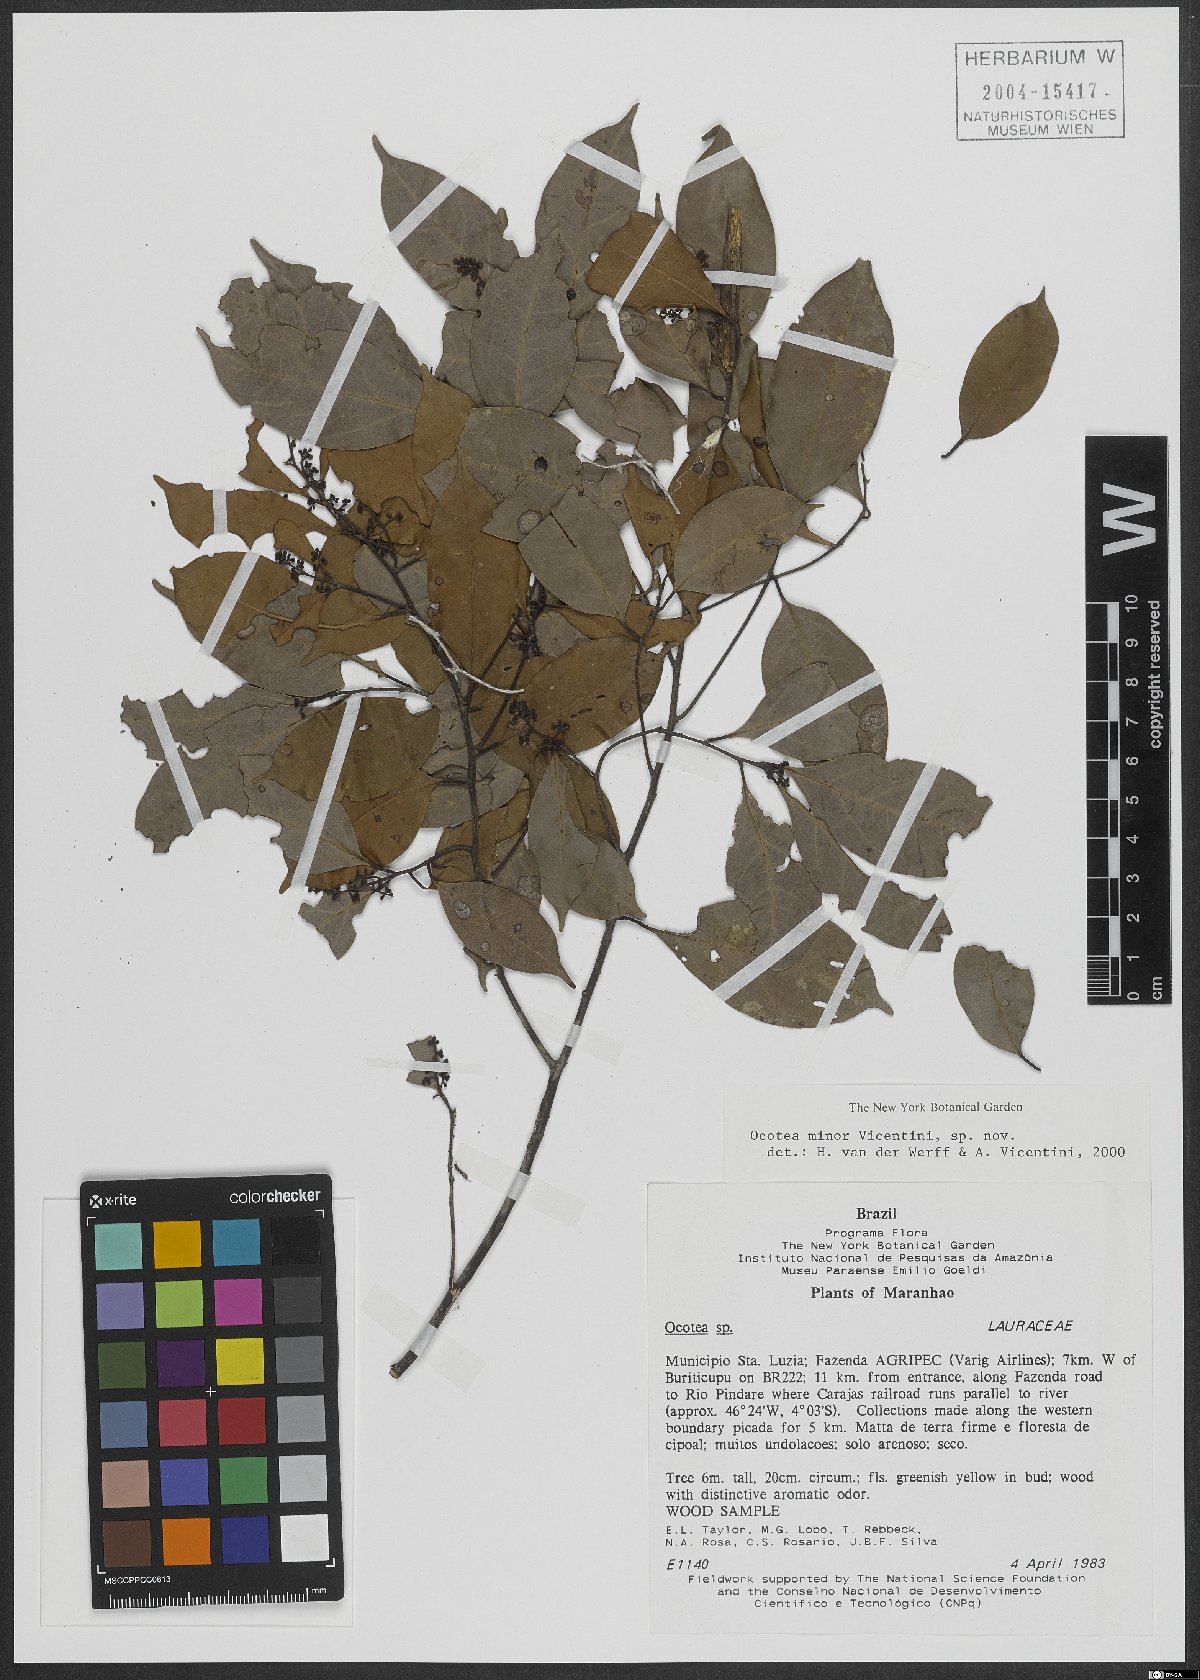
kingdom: Plantae
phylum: Tracheophyta
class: Magnoliopsida
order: Laurales
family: Lauraceae
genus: Ocotea
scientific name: Ocotea minor
